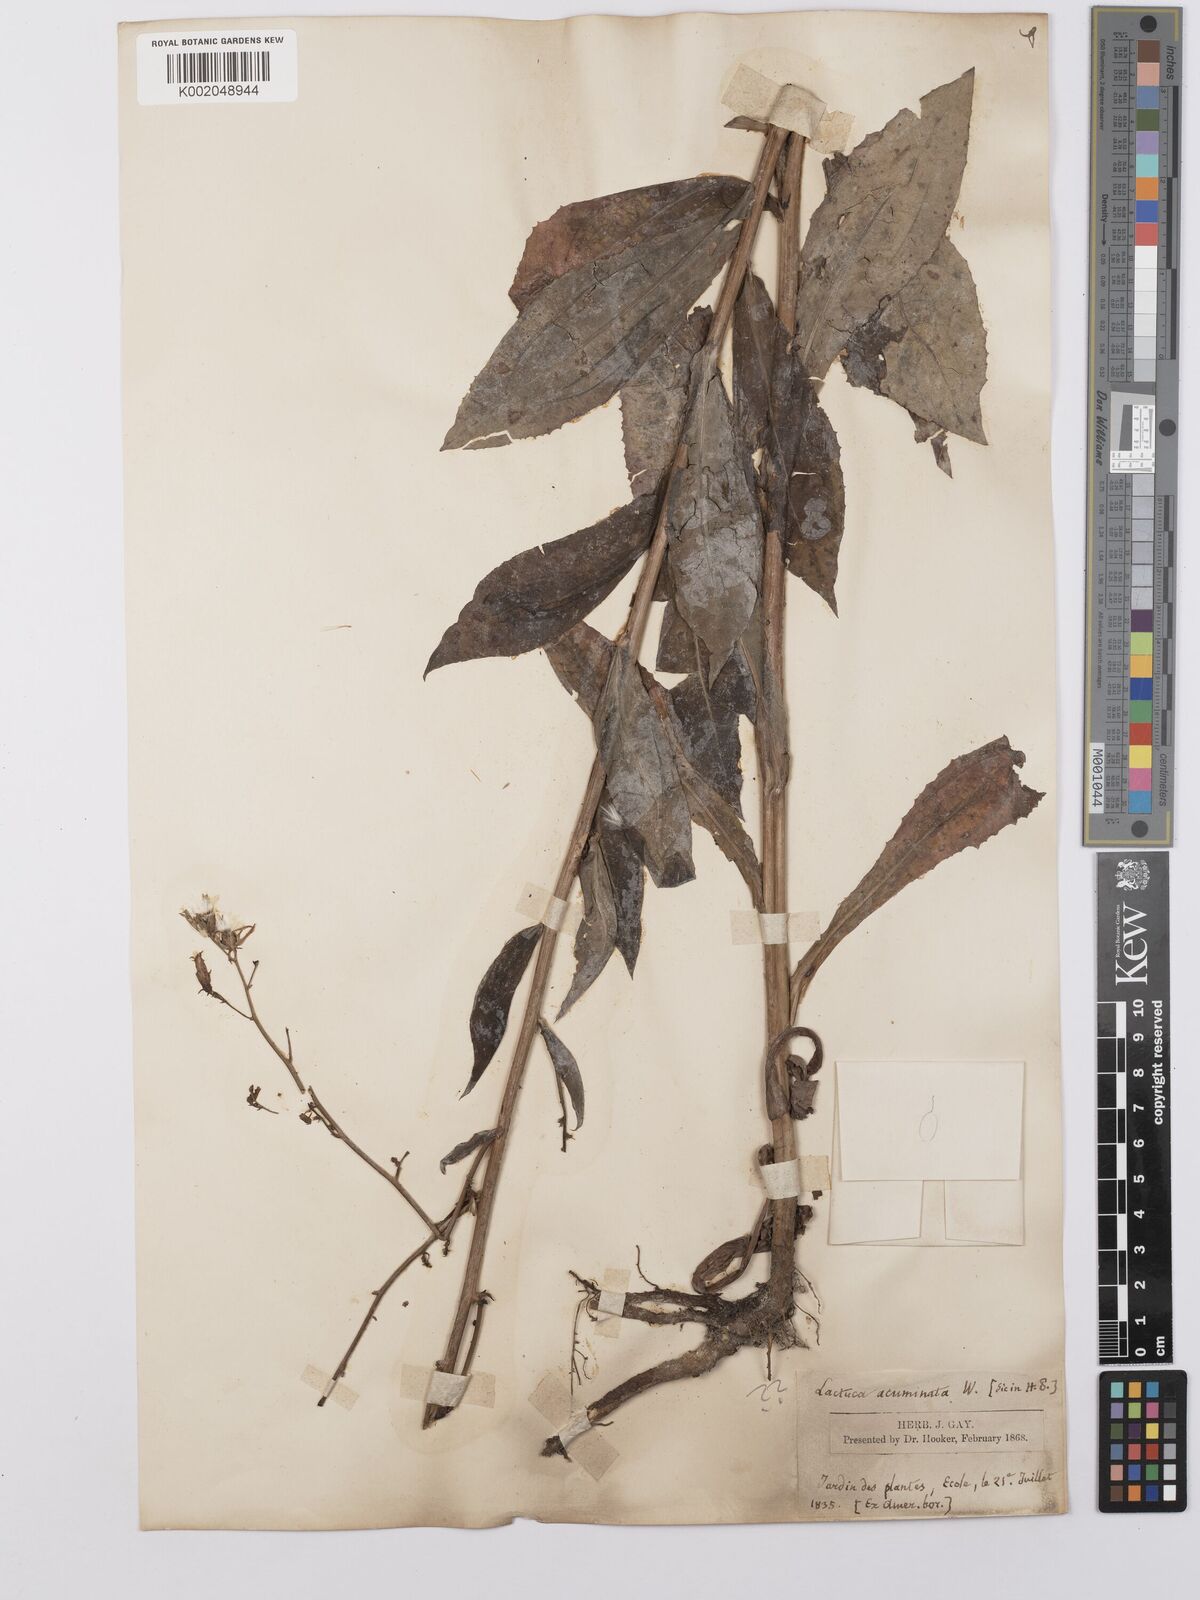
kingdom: Plantae
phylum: Tracheophyta
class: Magnoliopsida
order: Asterales
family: Asteraceae
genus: Lactuca
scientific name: Lactuca floridana
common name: Woodland lettuce
